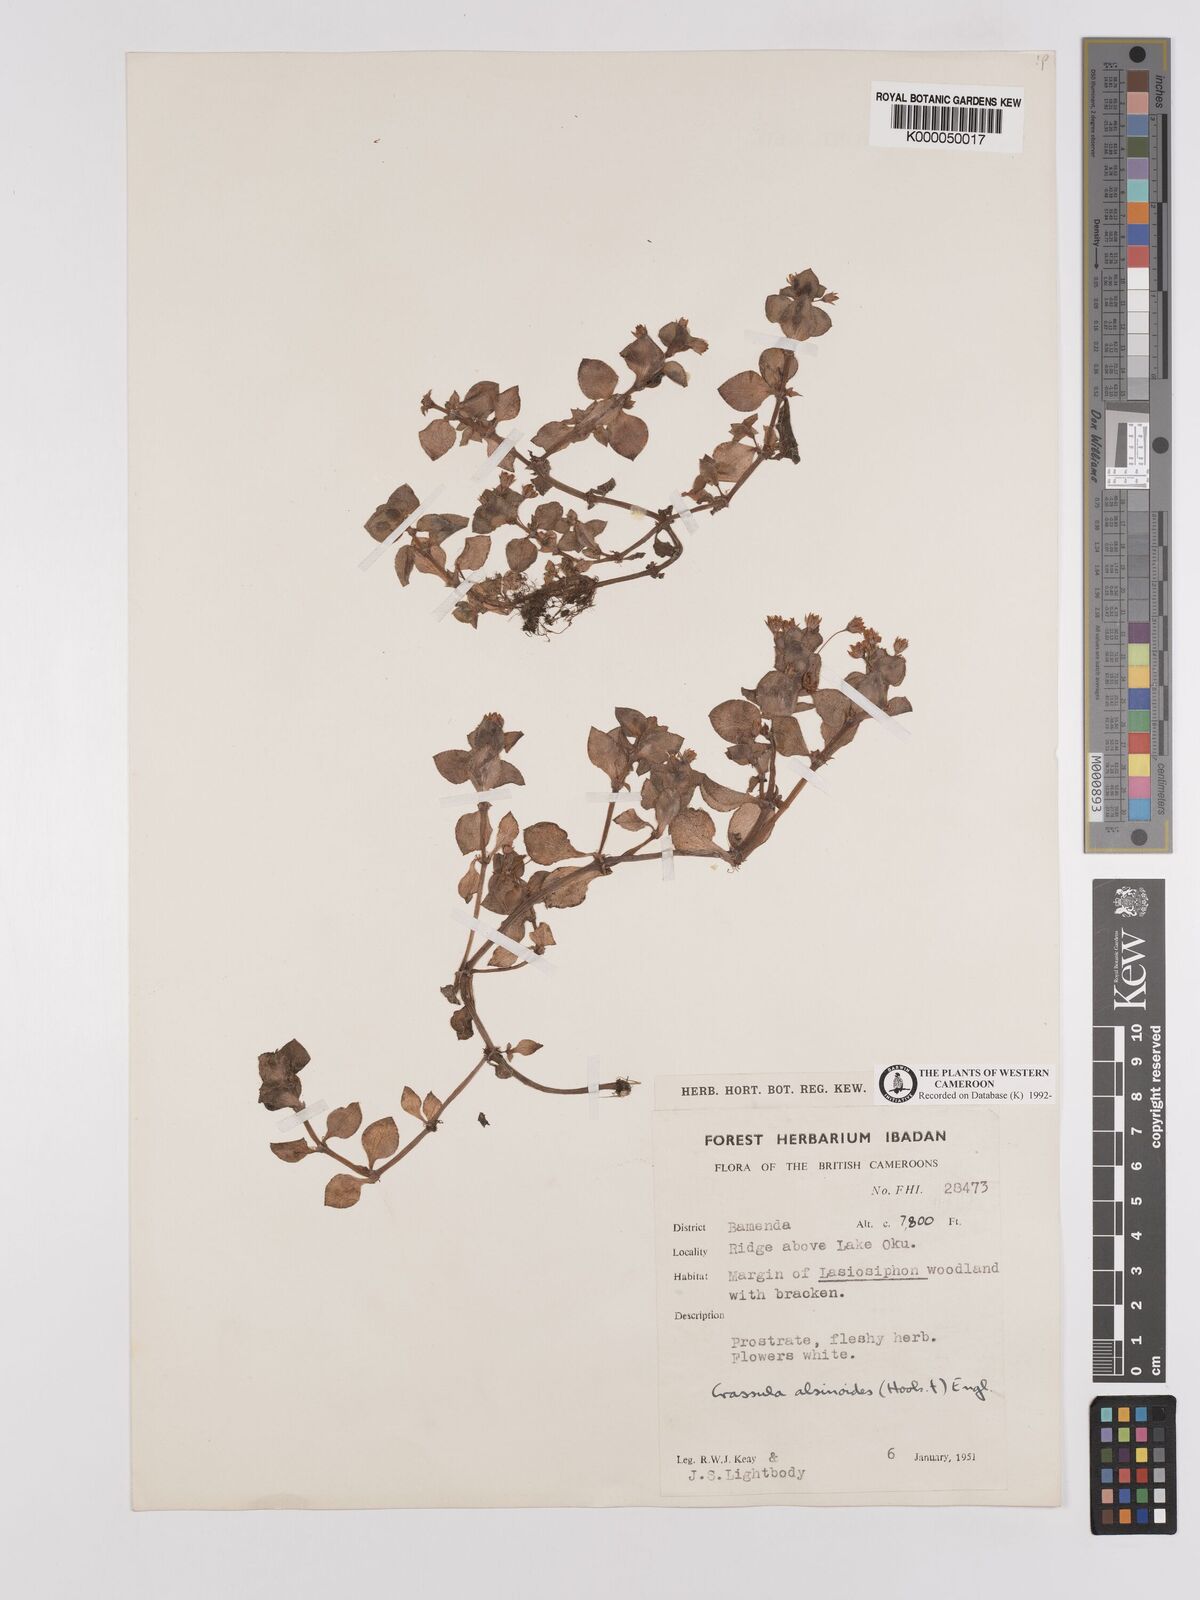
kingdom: Plantae
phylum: Tracheophyta
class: Magnoliopsida
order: Saxifragales
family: Crassulaceae
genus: Crassula
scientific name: Crassula alsinoides
